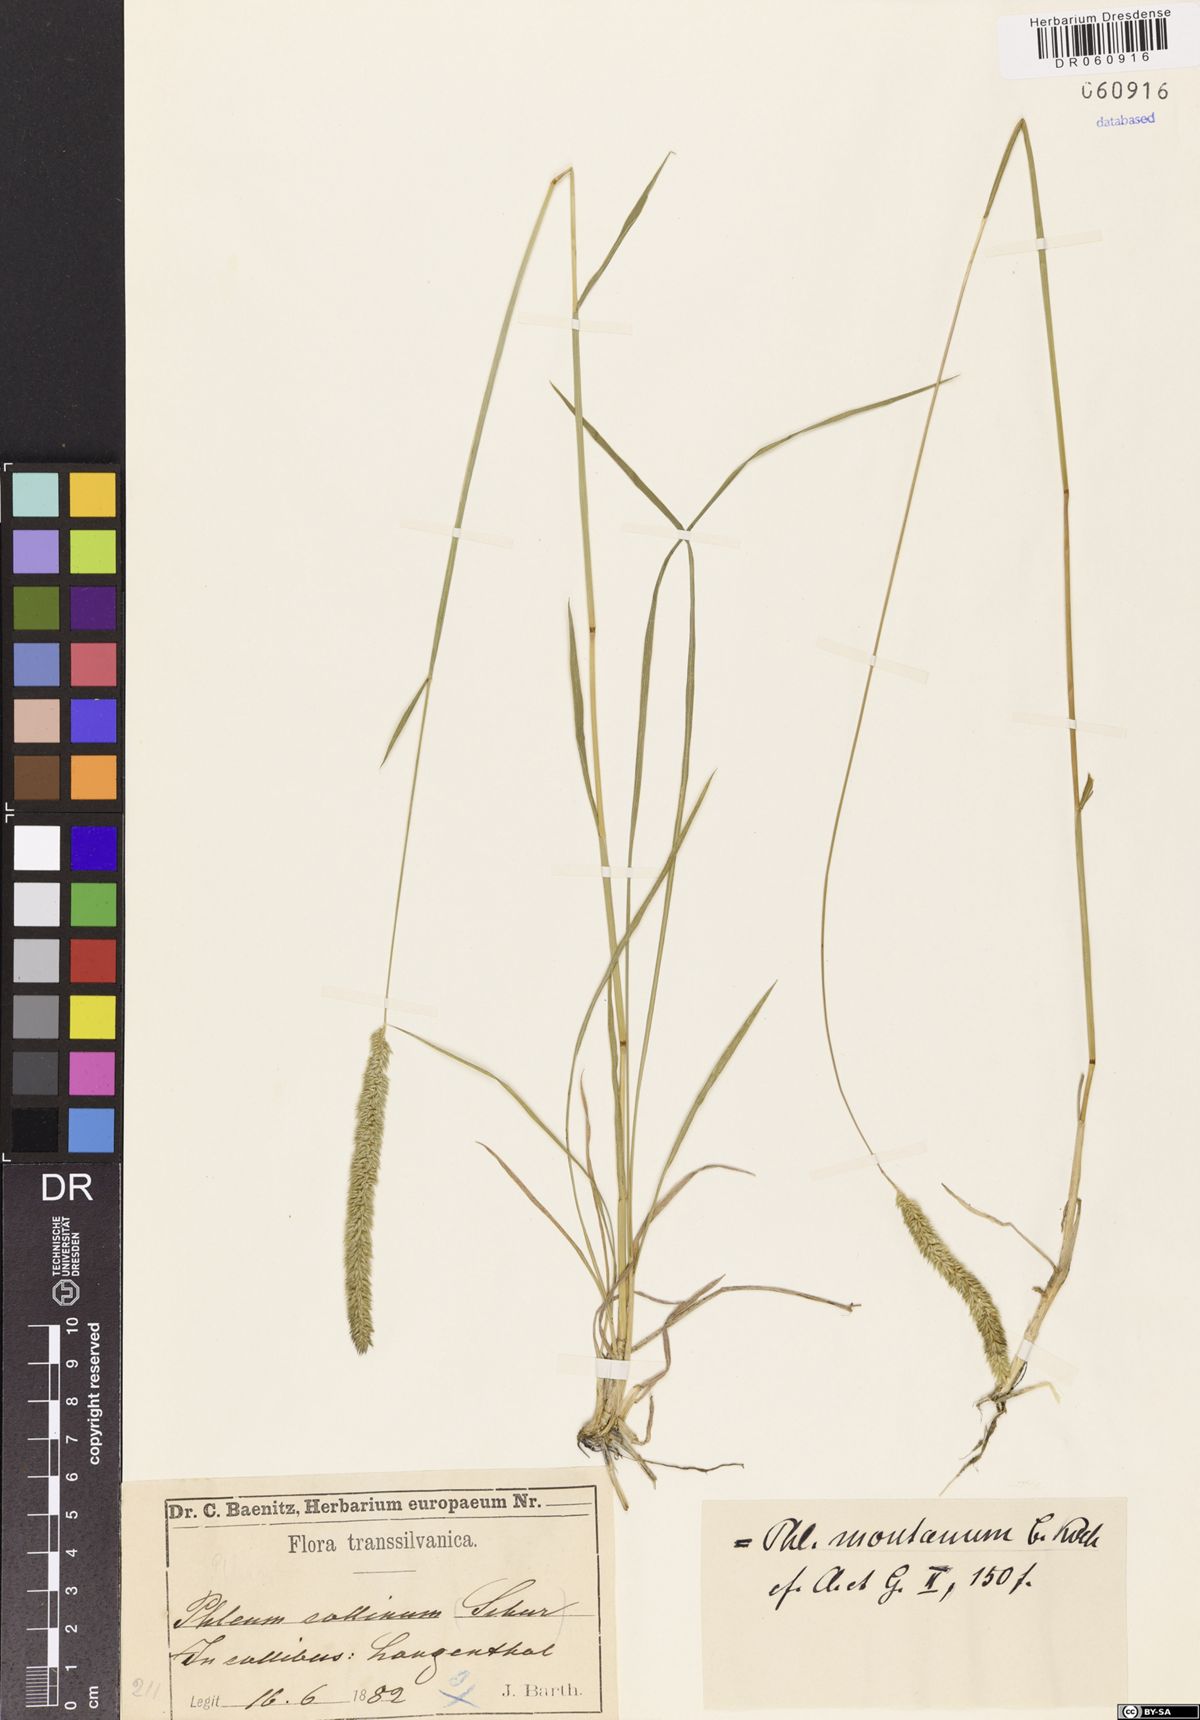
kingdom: Plantae
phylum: Tracheophyta
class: Liliopsida
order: Poales
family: Poaceae
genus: Phleum
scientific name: Phleum montanum
